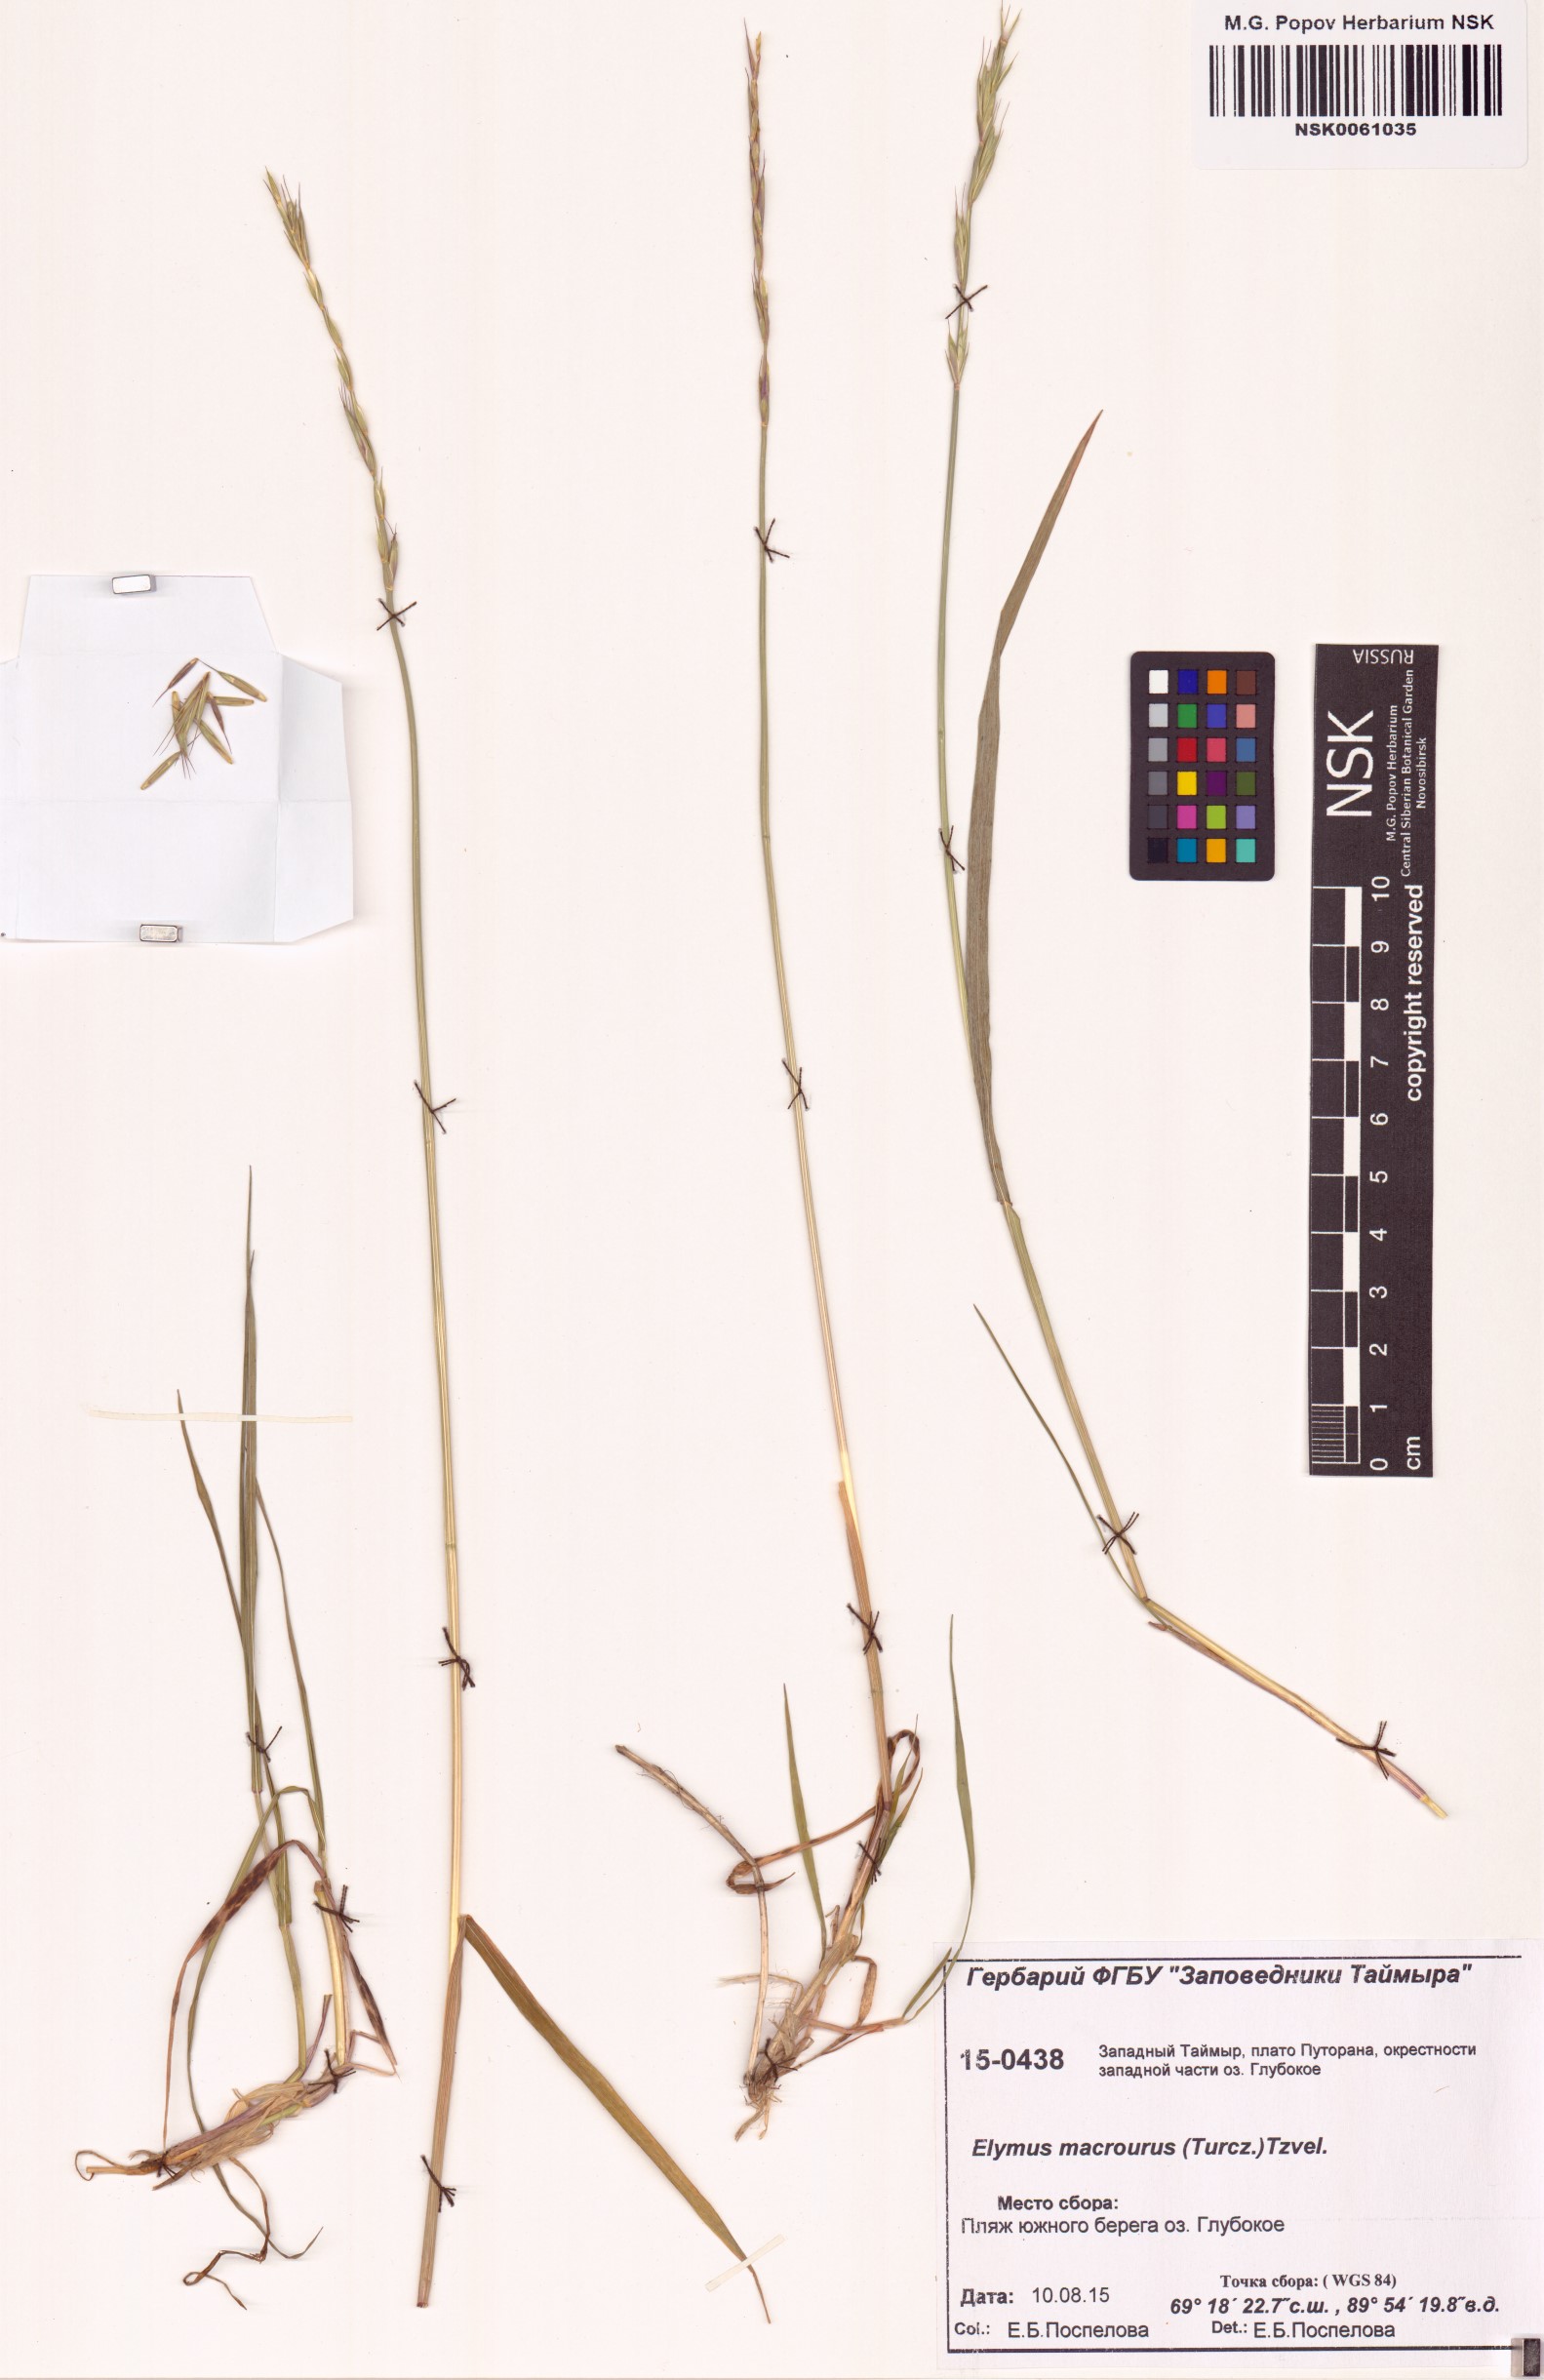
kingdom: Plantae
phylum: Tracheophyta
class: Liliopsida
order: Poales
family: Poaceae
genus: Elymus
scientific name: Elymus macrourus
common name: Northern wheatgrass
